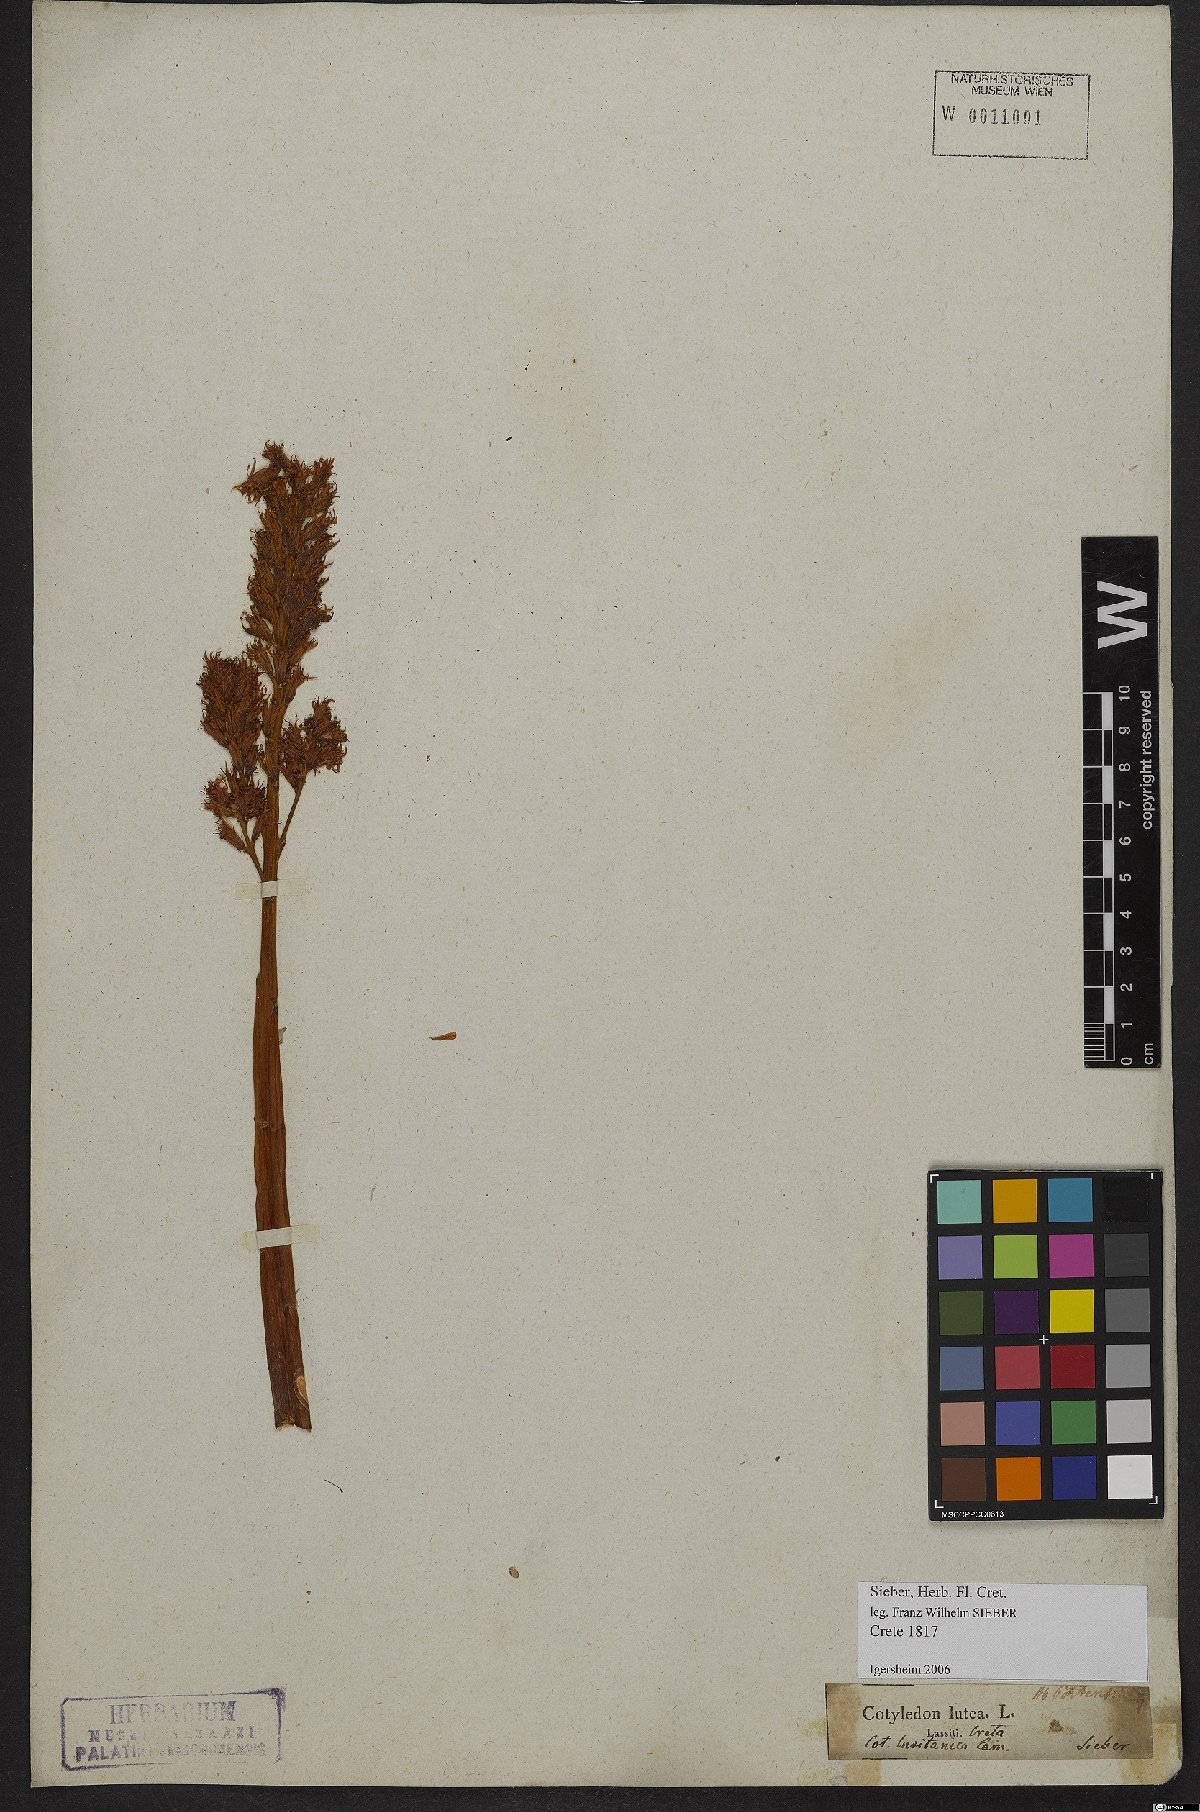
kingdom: Plantae
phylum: Tracheophyta
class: Magnoliopsida
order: Saxifragales
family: Crassulaceae
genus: Umbilicus
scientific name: Umbilicus luteus
